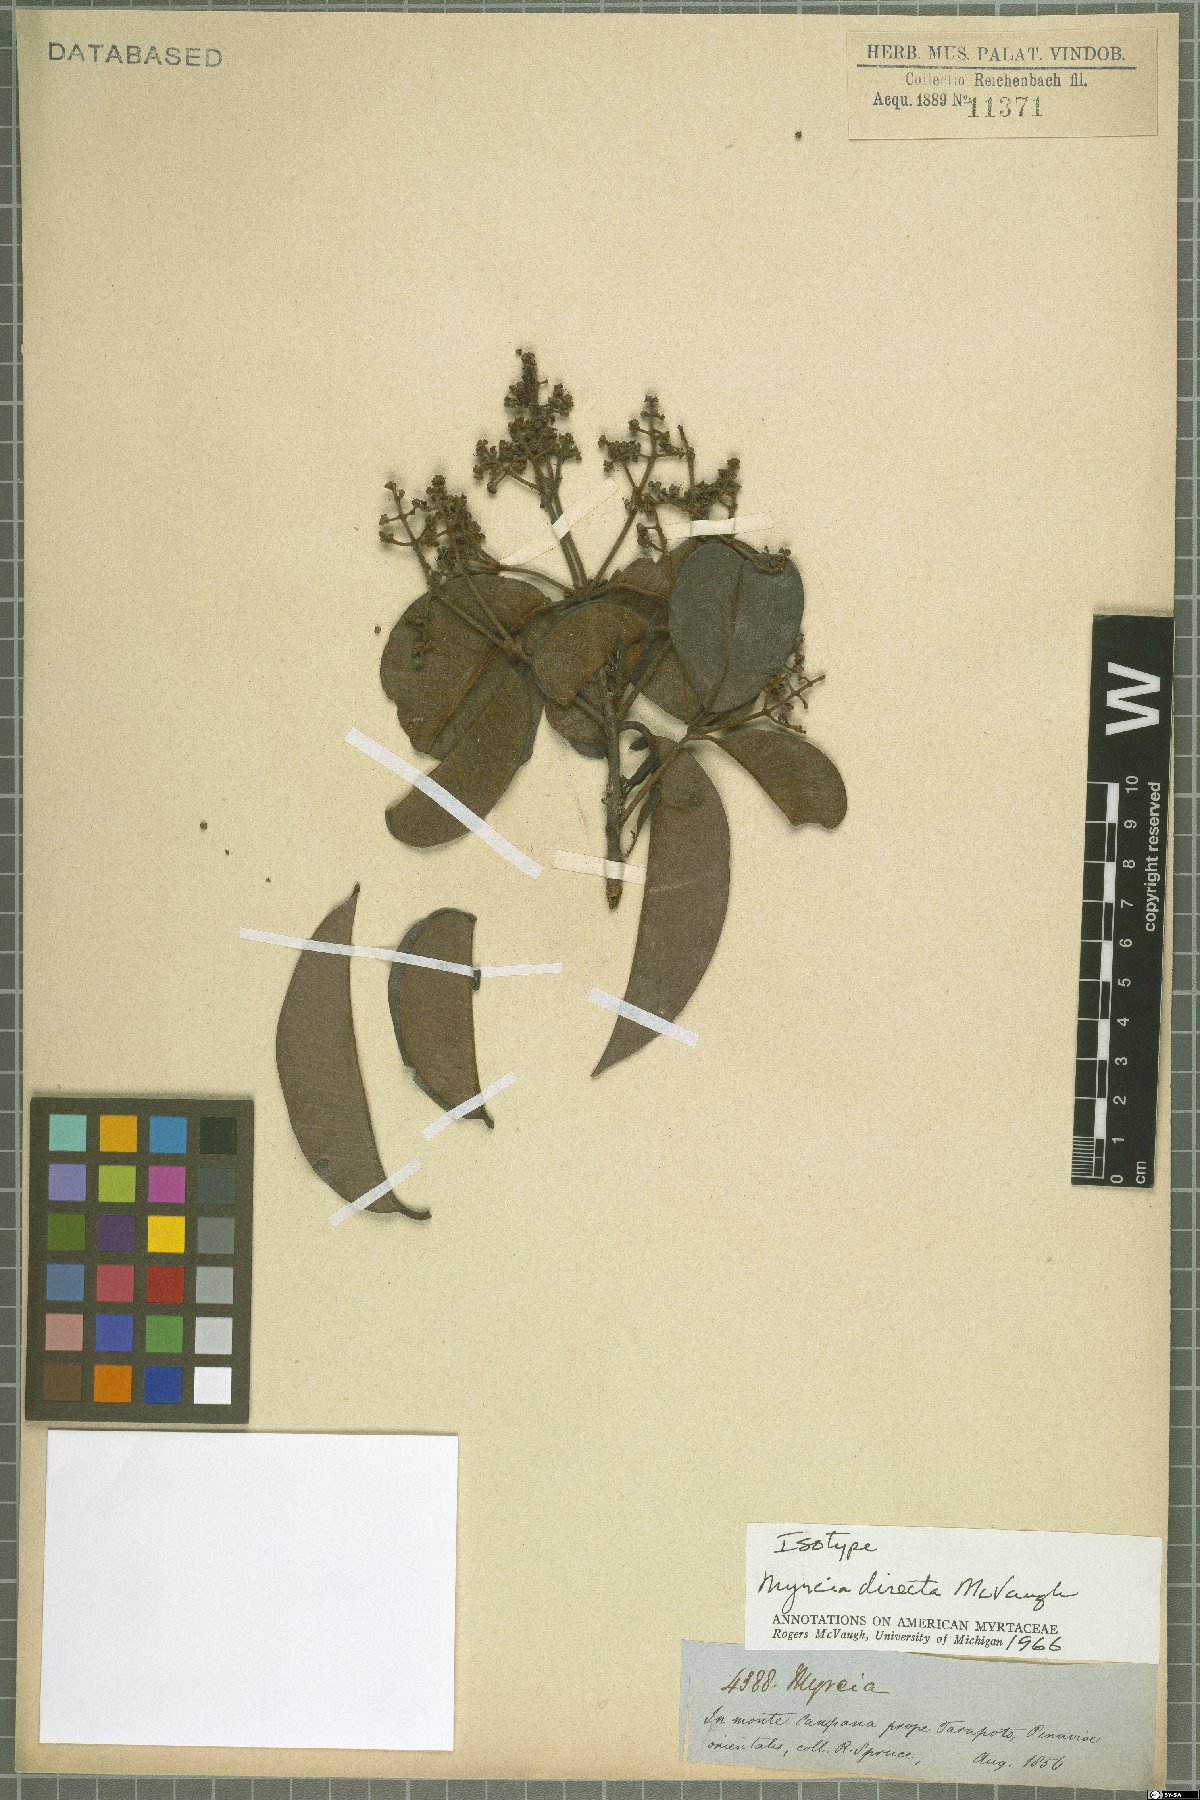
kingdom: Plantae
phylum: Tracheophyta
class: Magnoliopsida
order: Myrtales
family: Myrtaceae
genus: Myrcia
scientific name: Myrcia directa
